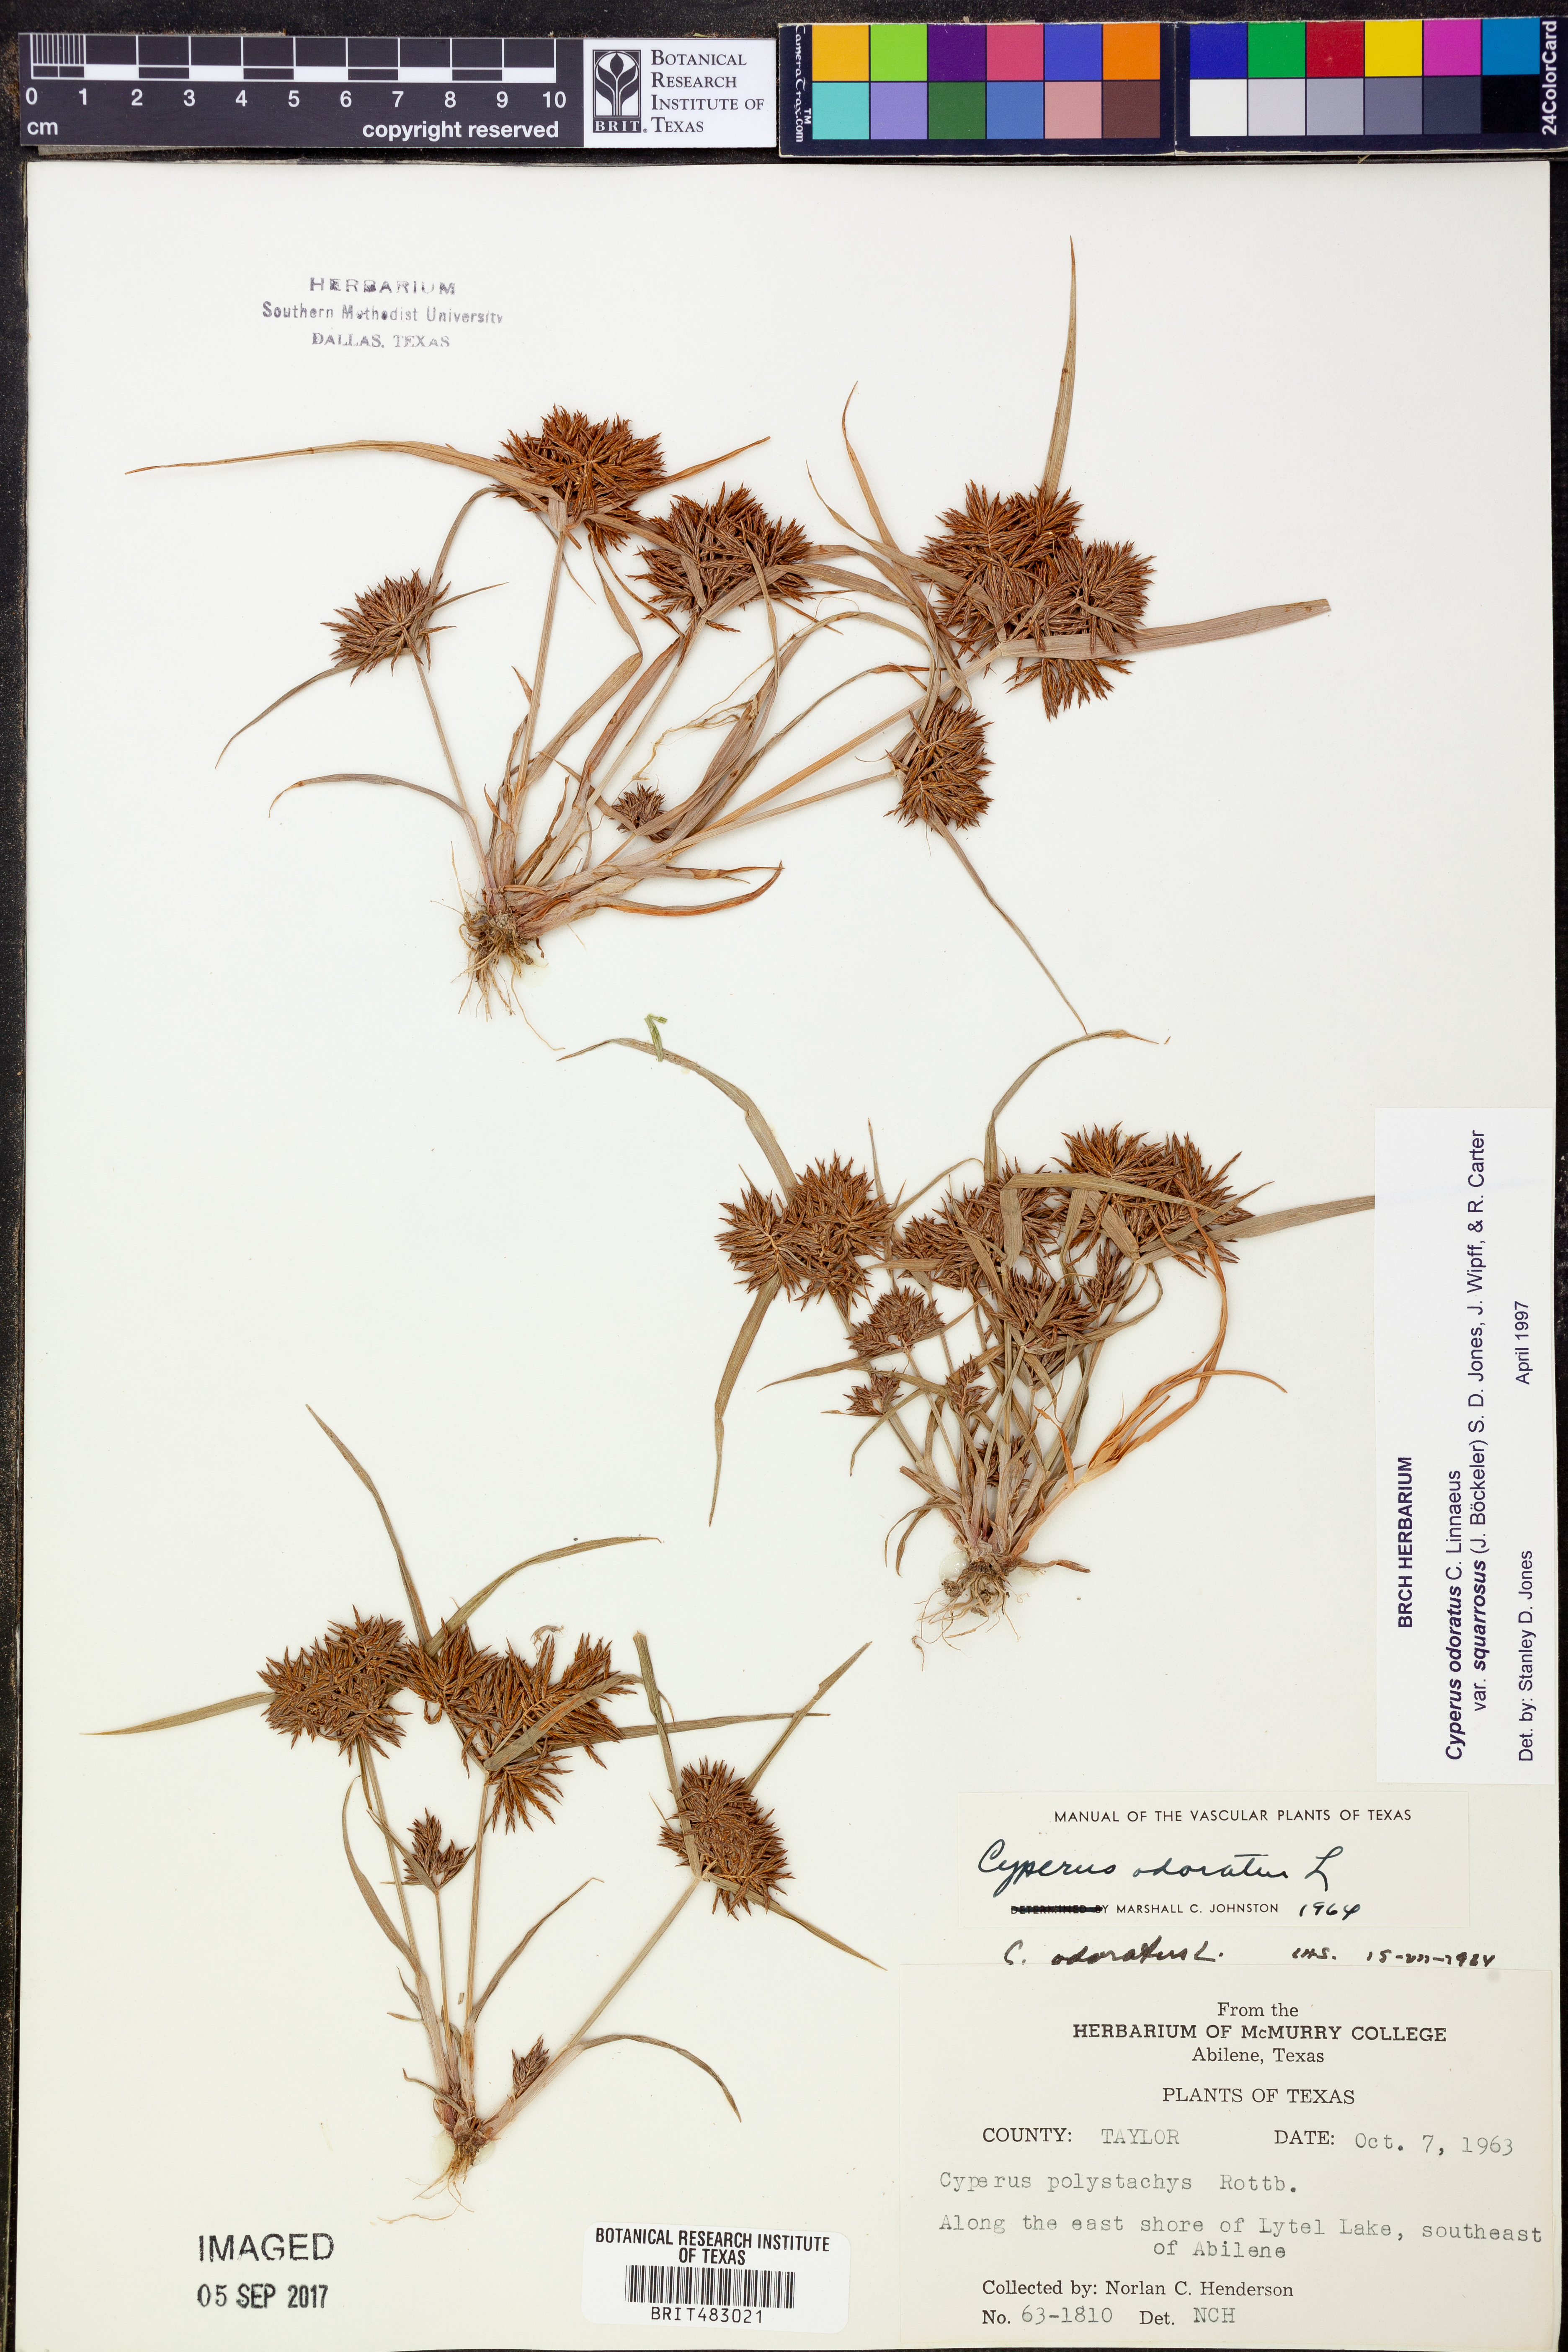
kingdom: Plantae
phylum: Tracheophyta
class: Liliopsida
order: Poales
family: Cyperaceae
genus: Cyperus
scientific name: Cyperus odoratus
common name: Fragrant flatsedge
